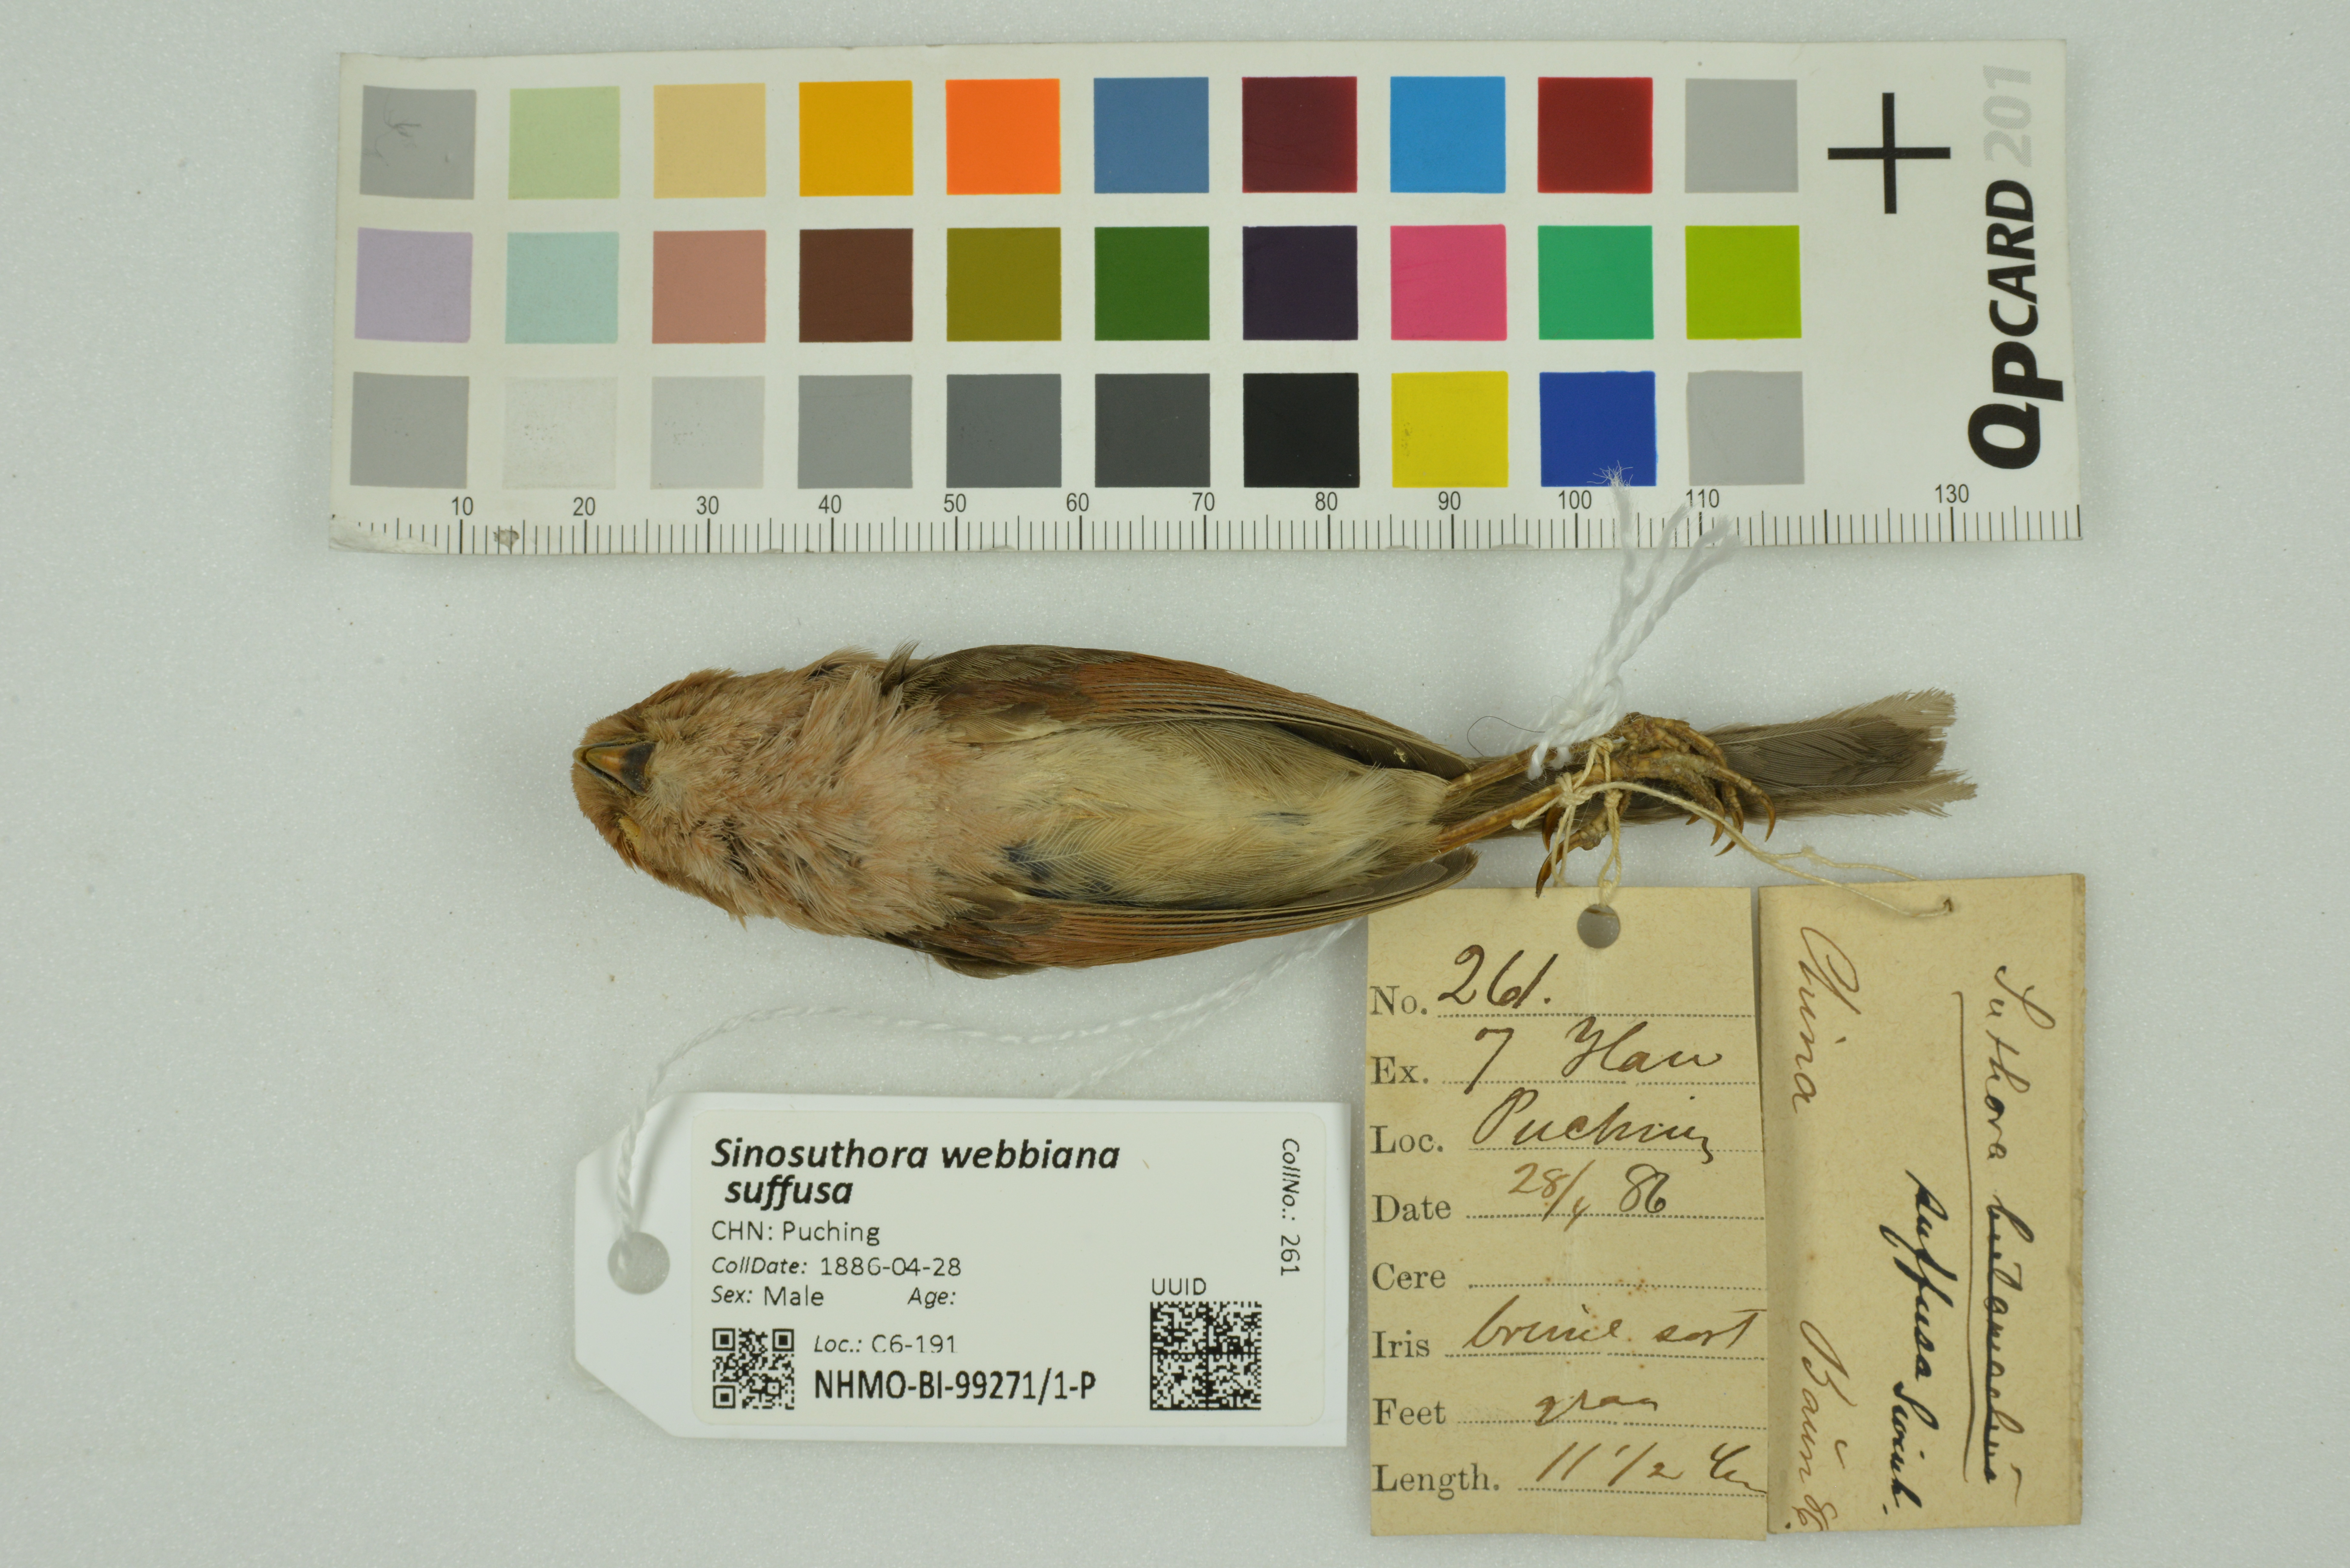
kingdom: Animalia
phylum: Chordata
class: Aves
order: Passeriformes
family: Sylviidae
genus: Sinosuthora
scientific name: Sinosuthora webbiana
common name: Vinous-throated parrotbill
